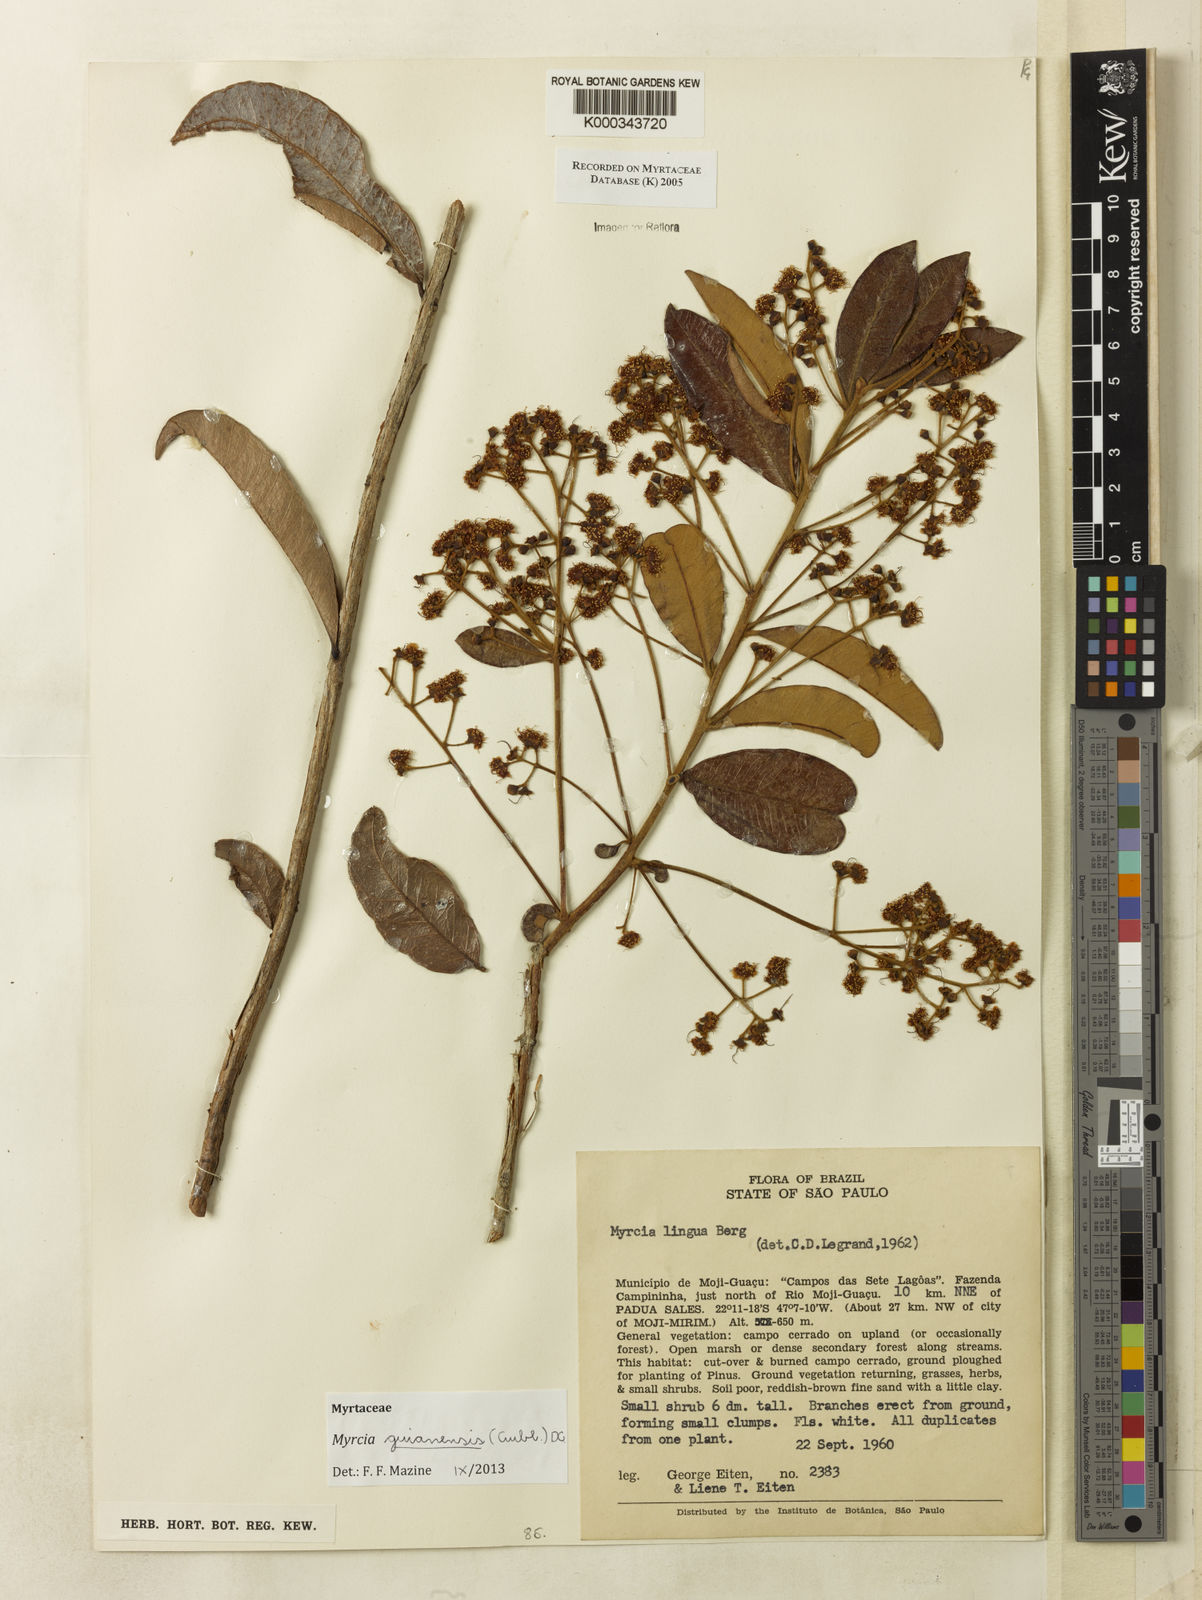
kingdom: Plantae
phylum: Tracheophyta
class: Magnoliopsida
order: Myrtales
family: Myrtaceae
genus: Myrcia
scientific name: Myrcia guianensis
